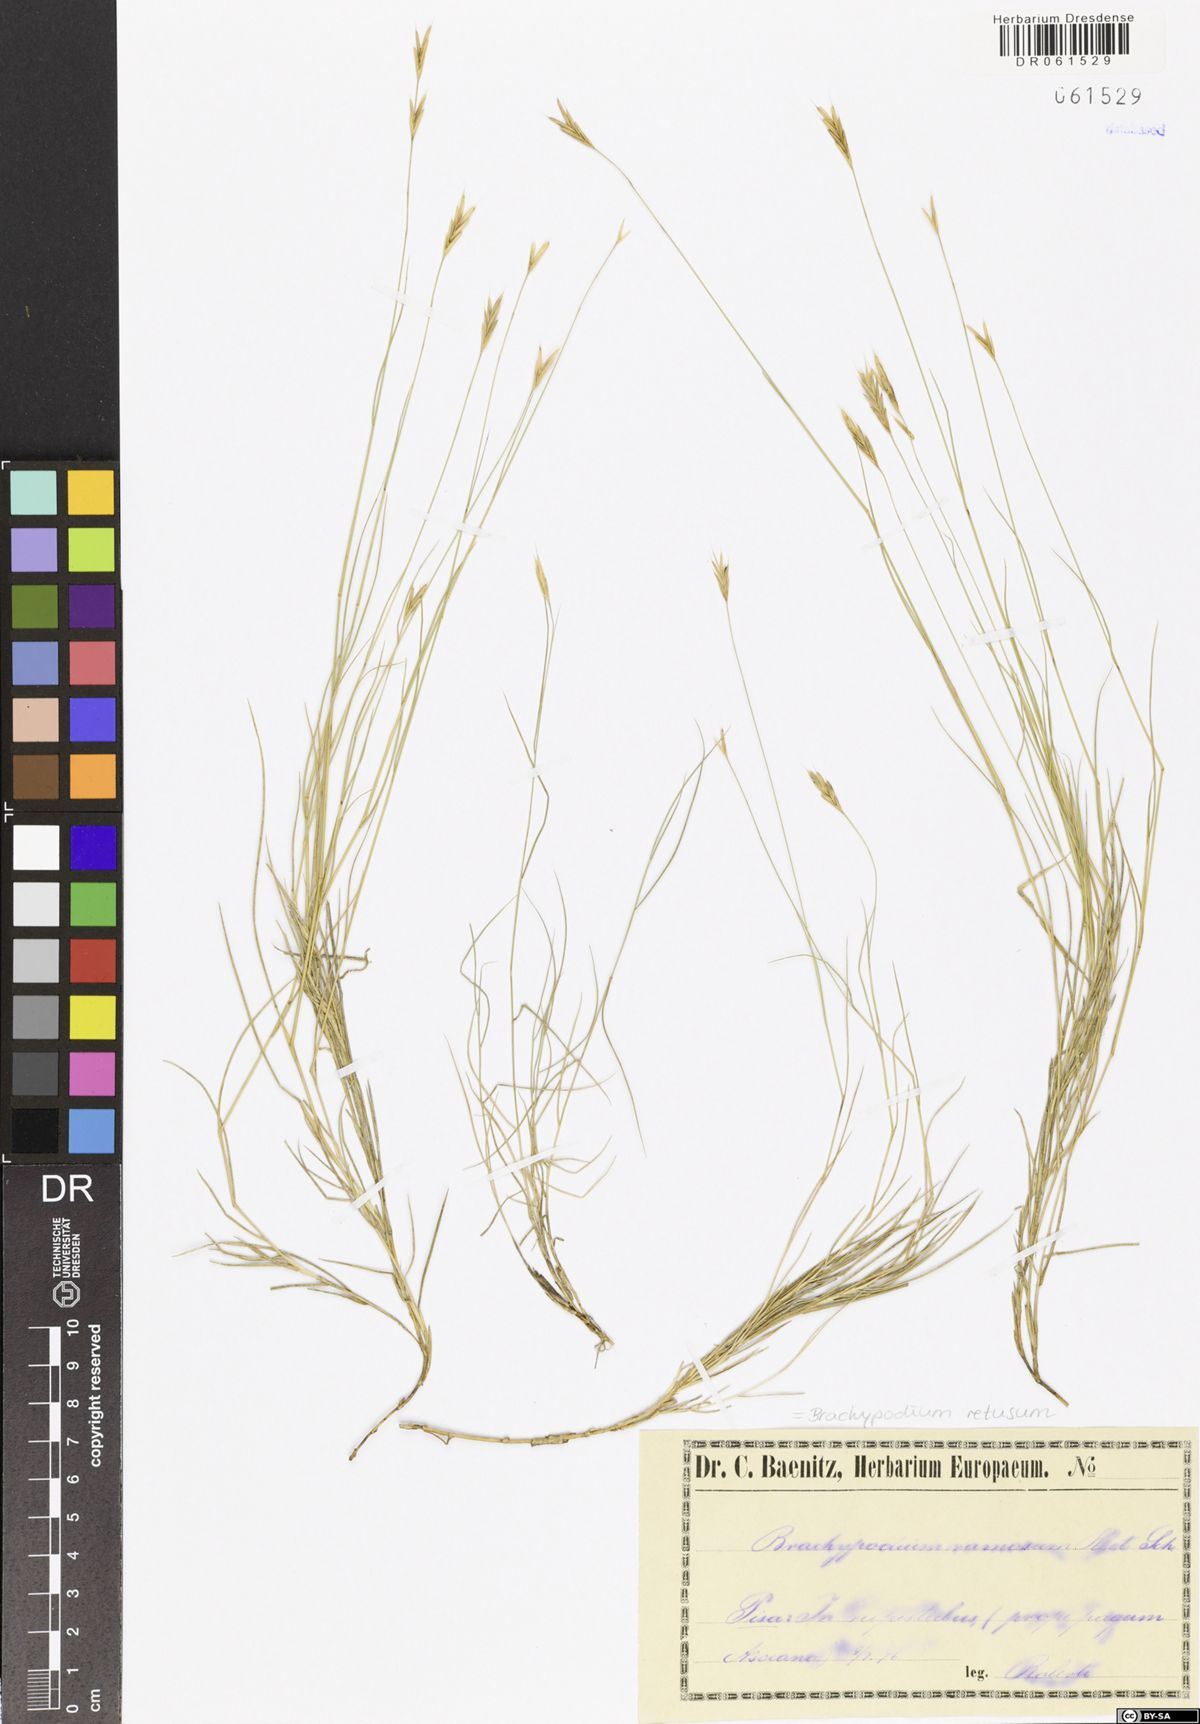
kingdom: Plantae
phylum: Tracheophyta
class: Liliopsida
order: Poales
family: Poaceae
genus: Brachypodium
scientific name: Brachypodium retusum
